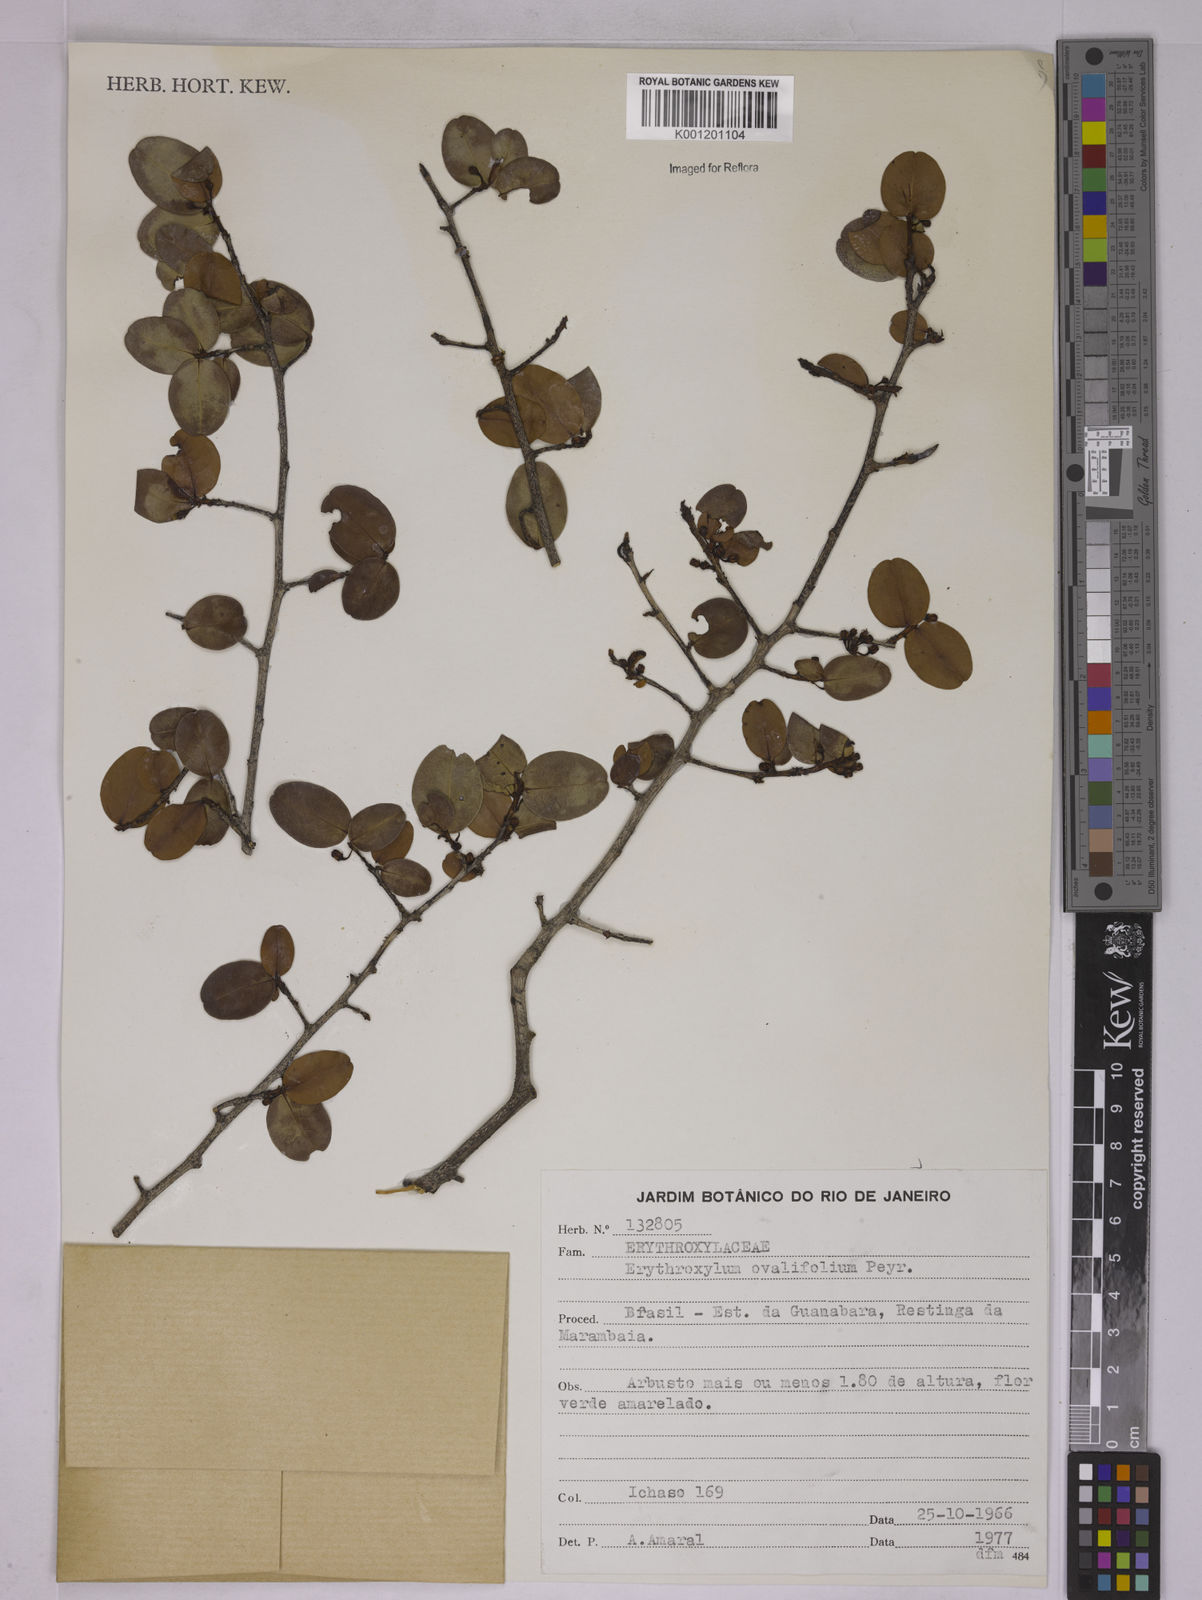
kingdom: Plantae
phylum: Tracheophyta
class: Magnoliopsida
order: Malpighiales
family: Erythroxylaceae
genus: Erythroxylum
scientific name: Erythroxylum ovalifolium
